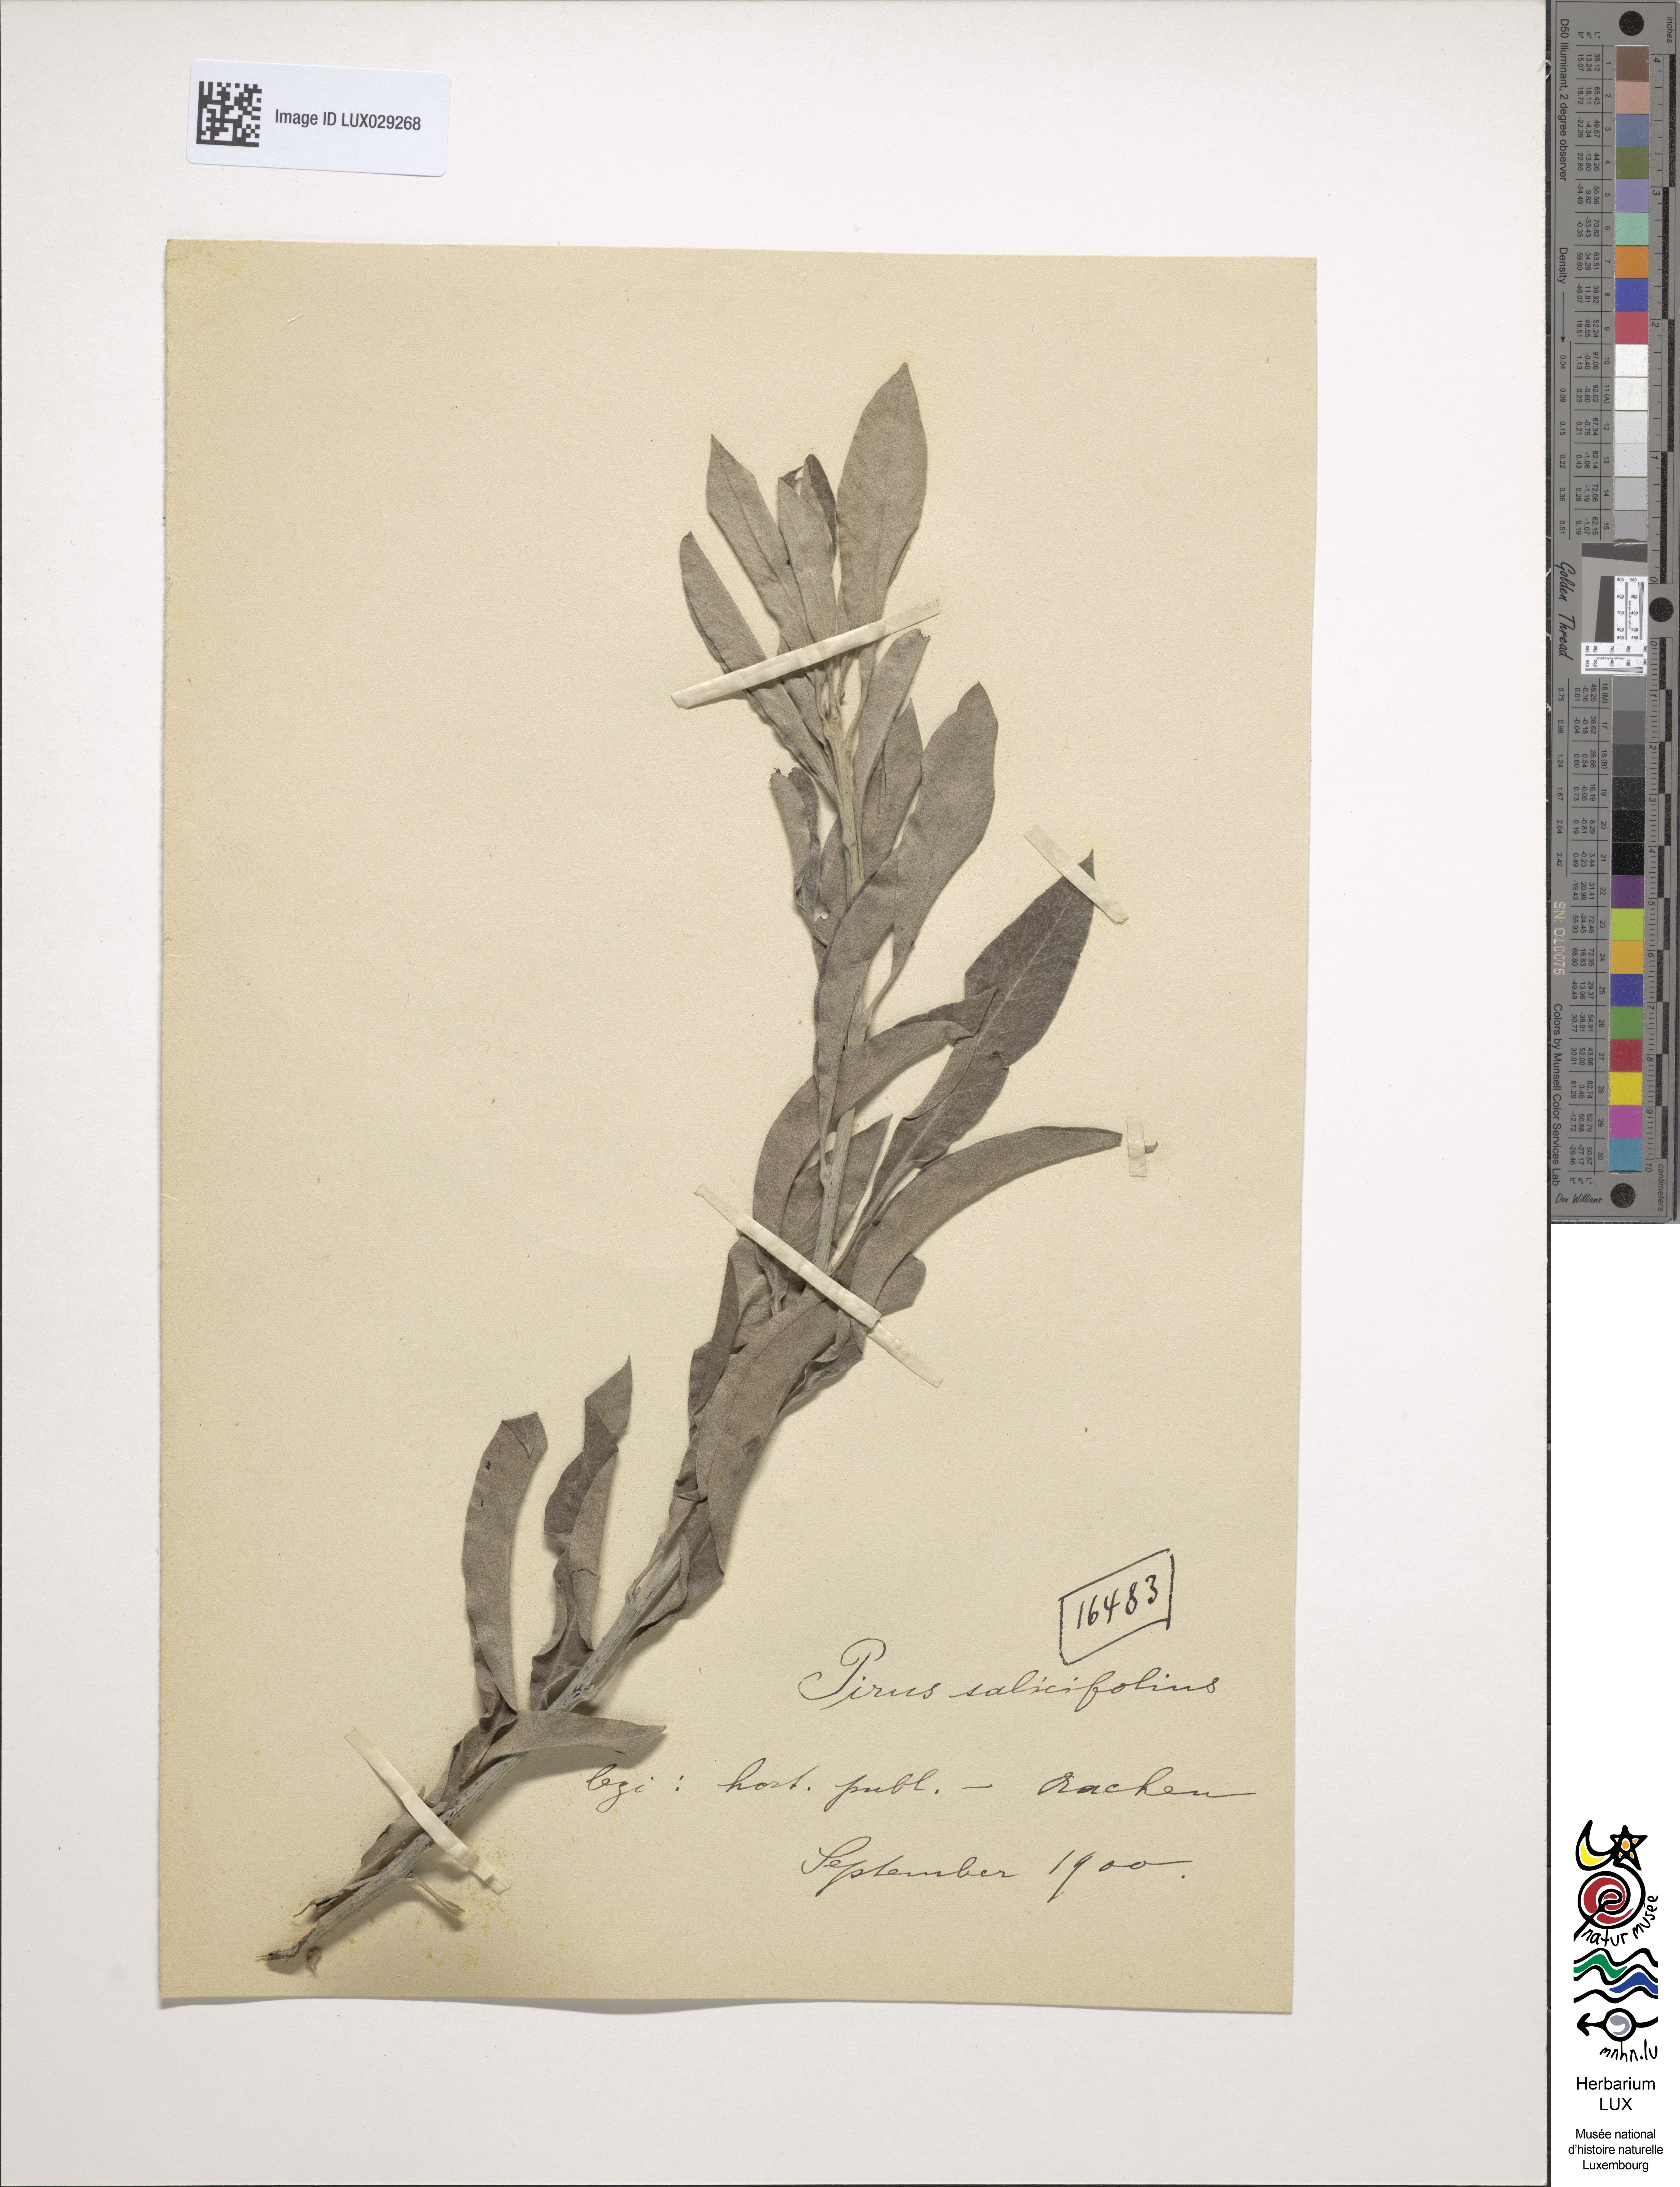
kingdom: Plantae
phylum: Tracheophyta
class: Magnoliopsida
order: Rosales
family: Rosaceae
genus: Pyrus
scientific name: Pyrus nivalis
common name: Snow pear
